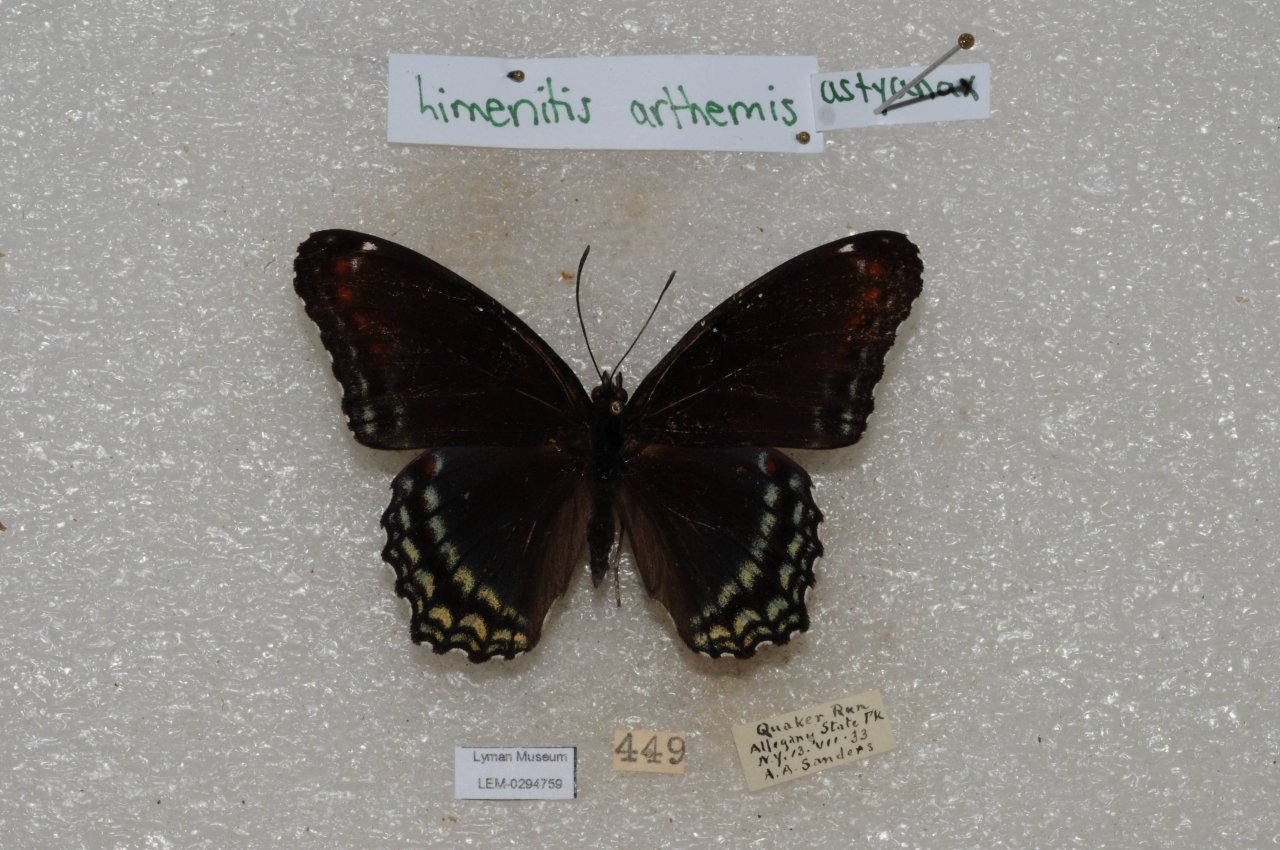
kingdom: Animalia
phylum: Arthropoda
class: Insecta
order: Lepidoptera
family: Nymphalidae
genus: Limenitis
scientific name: Limenitis
